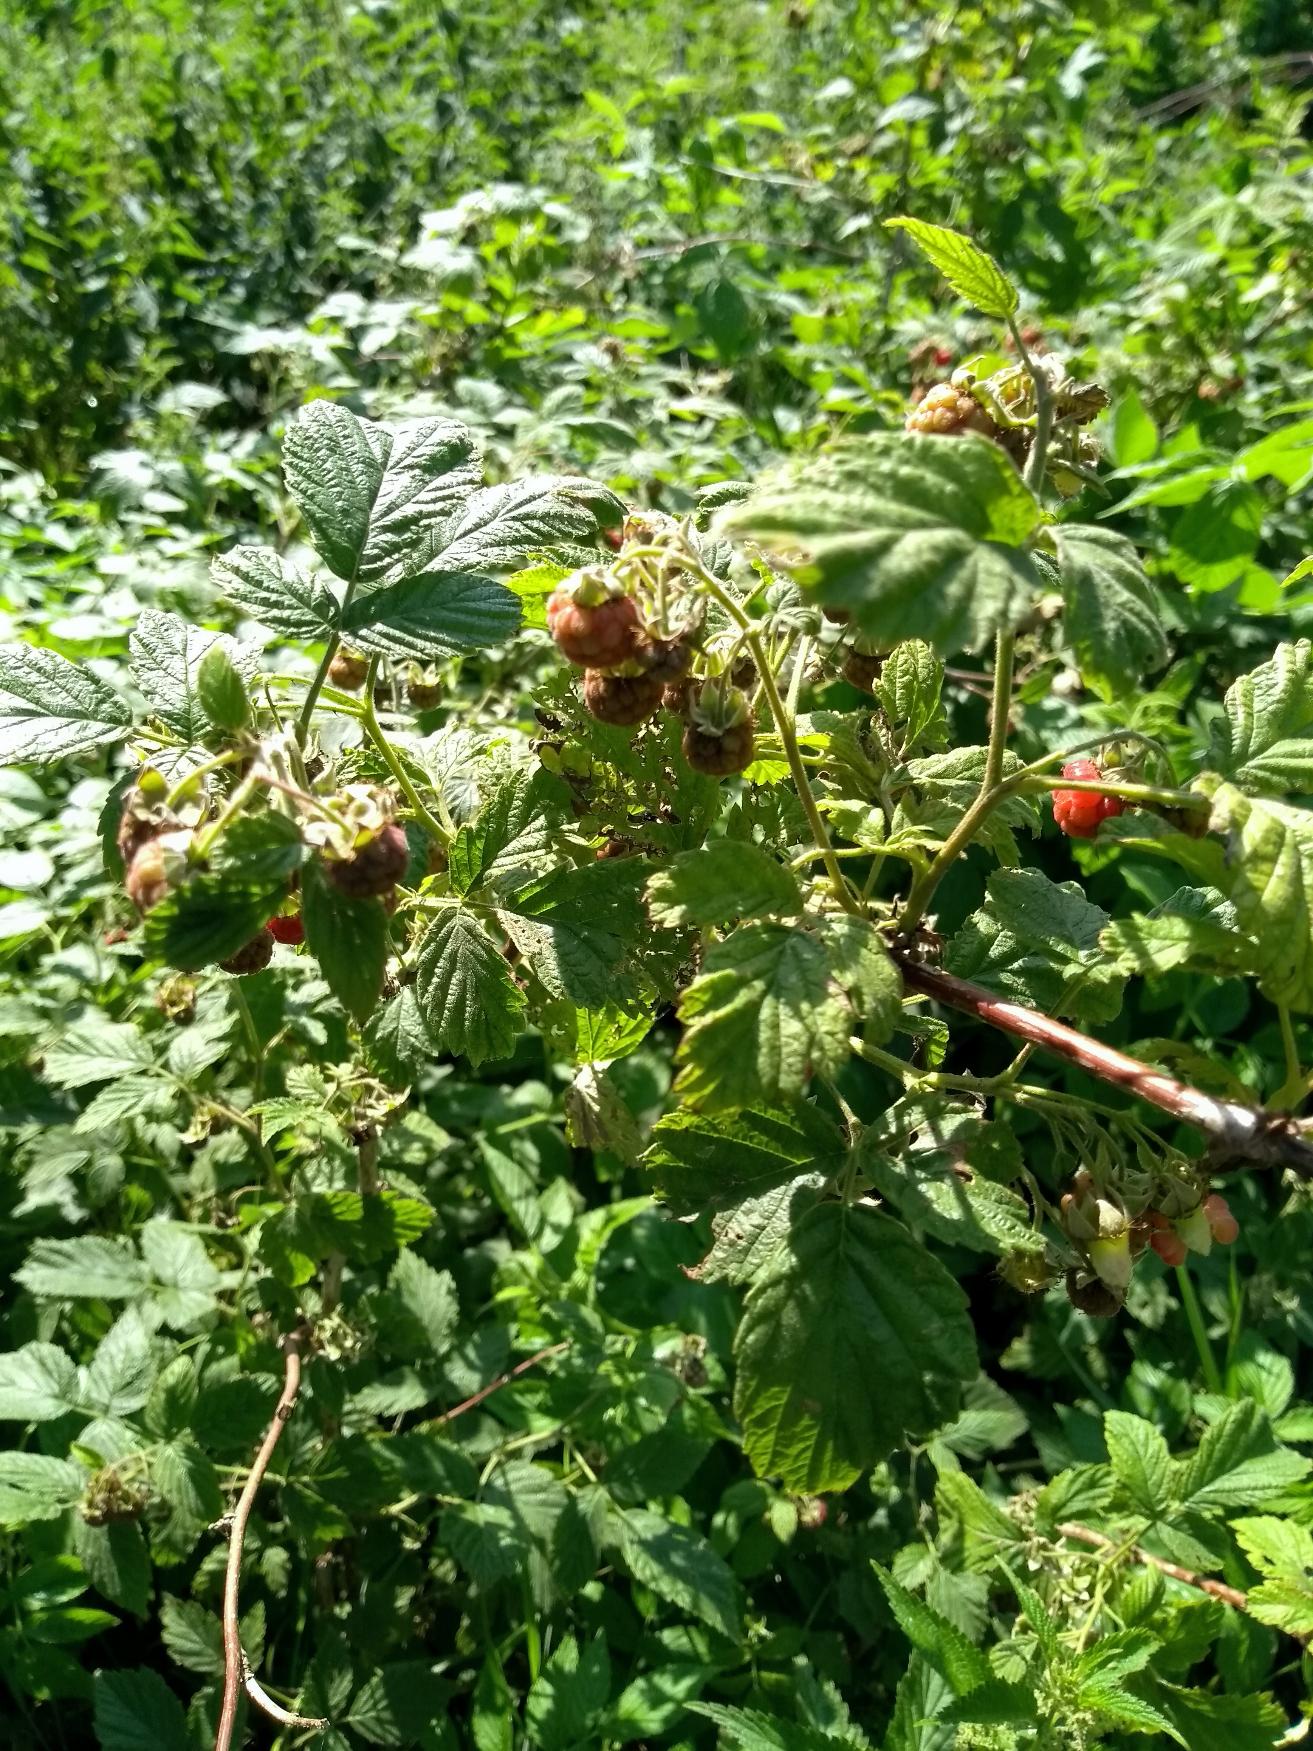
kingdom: Plantae
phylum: Tracheophyta
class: Magnoliopsida
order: Rosales
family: Rosaceae
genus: Rubus
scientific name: Rubus idaeus
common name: Hindbær
